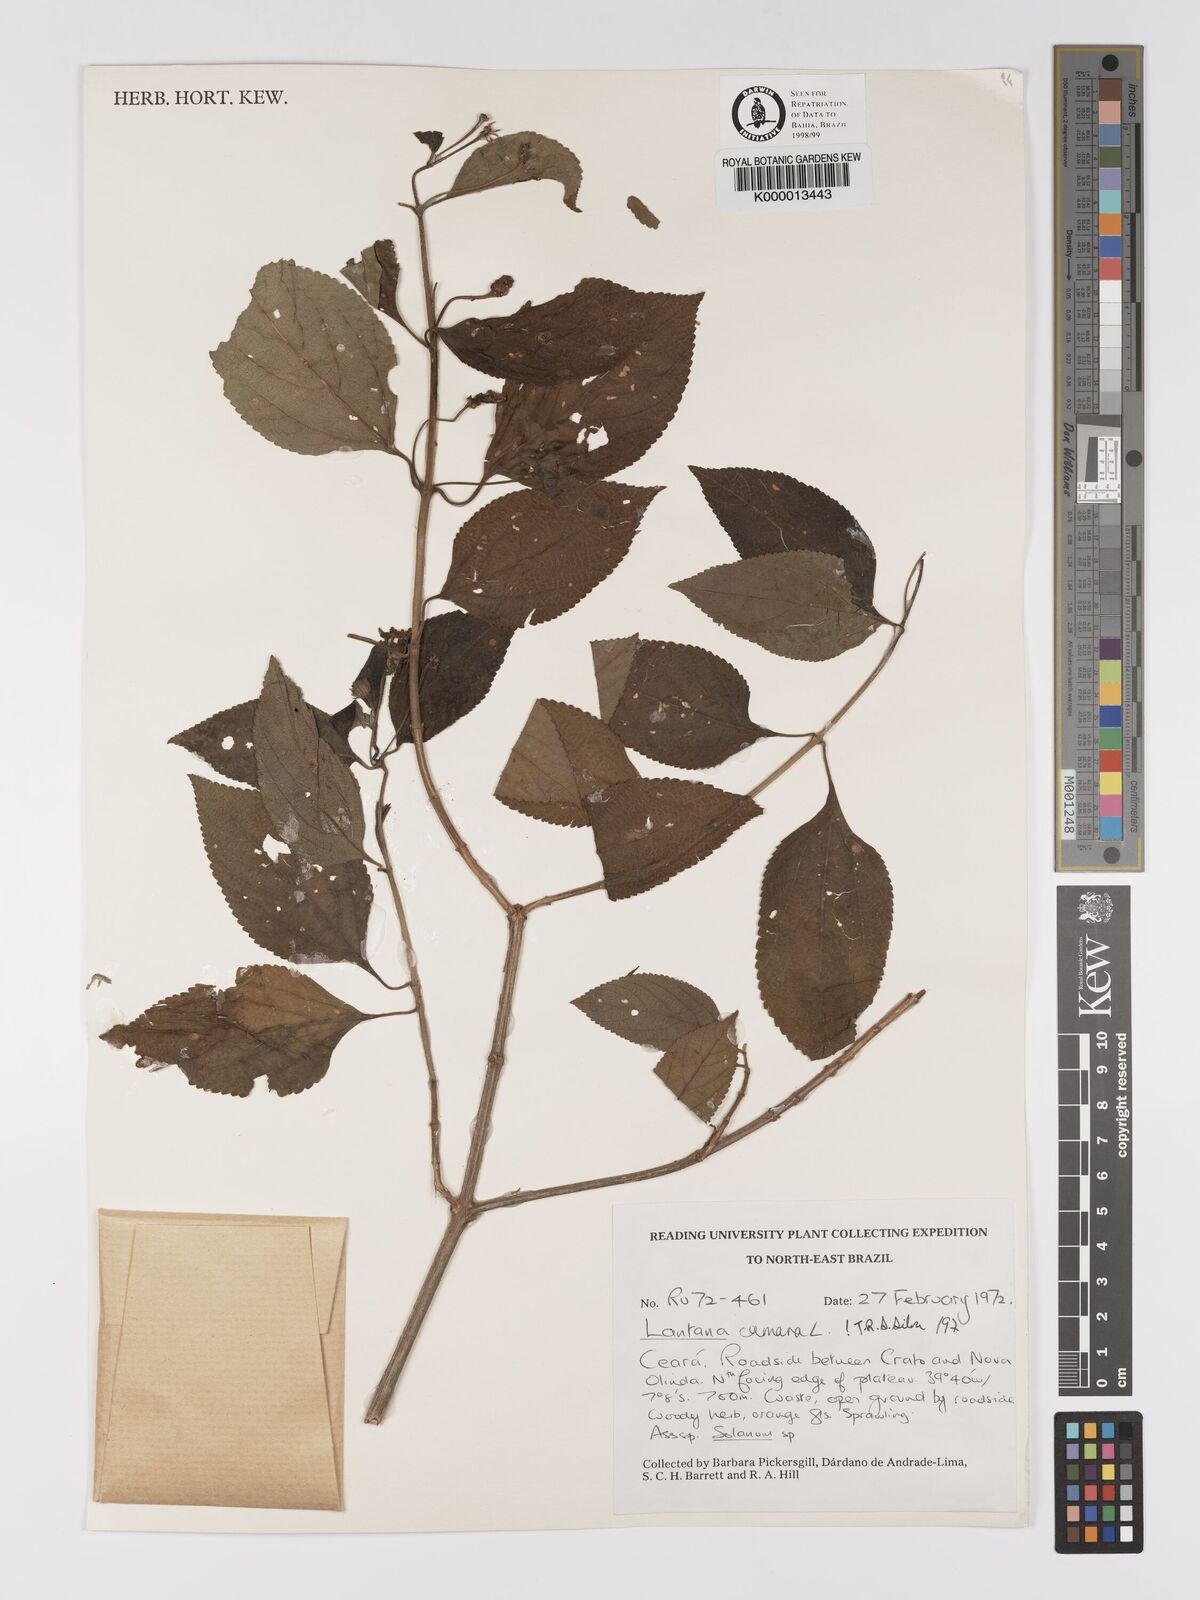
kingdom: Plantae
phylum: Tracheophyta
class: Magnoliopsida
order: Lamiales
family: Verbenaceae
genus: Lantana
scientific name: Lantana camara
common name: Lantana
